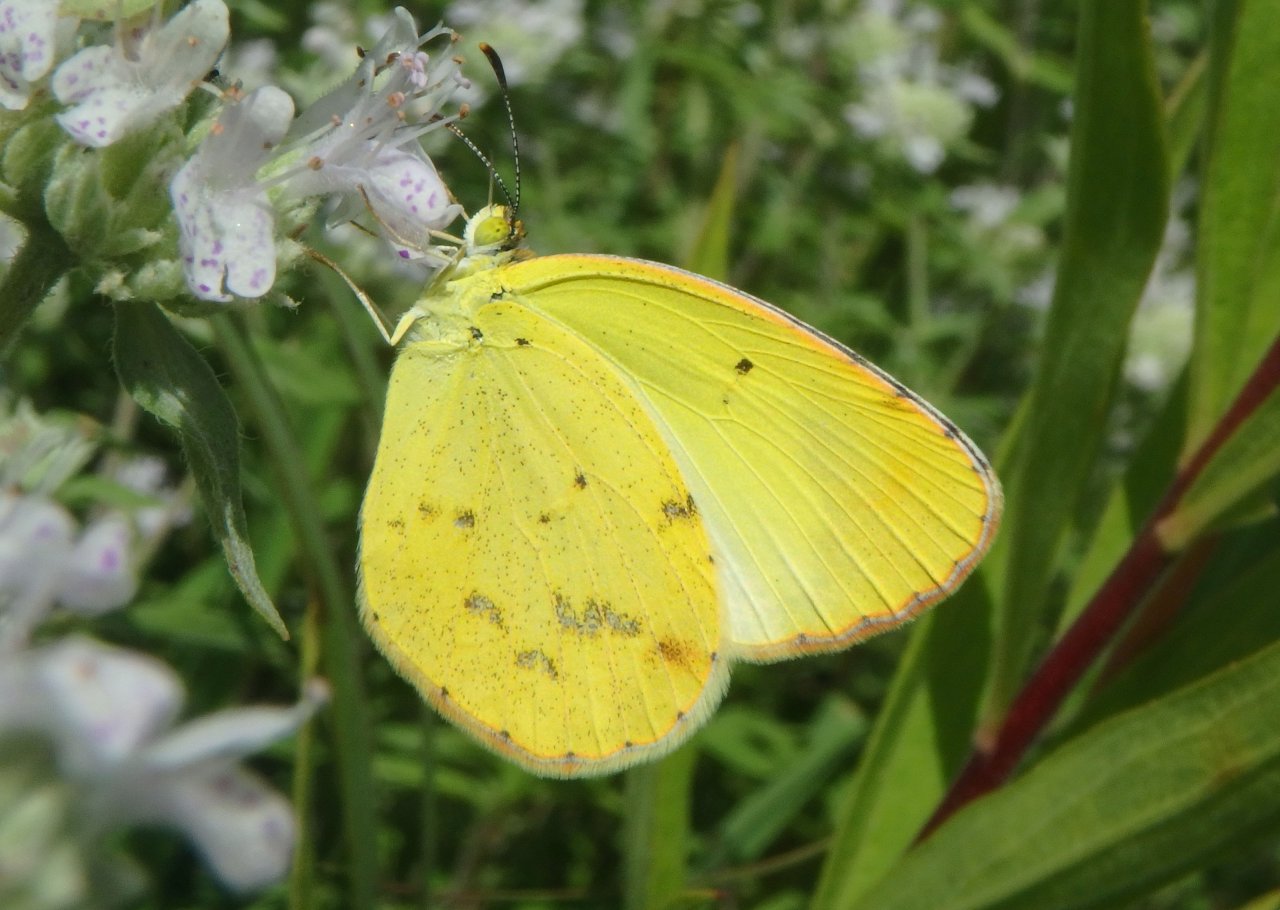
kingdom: Animalia
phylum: Arthropoda
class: Insecta
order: Lepidoptera
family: Pieridae
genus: Pyrisitia
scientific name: Pyrisitia lisa
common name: Little Yellow
